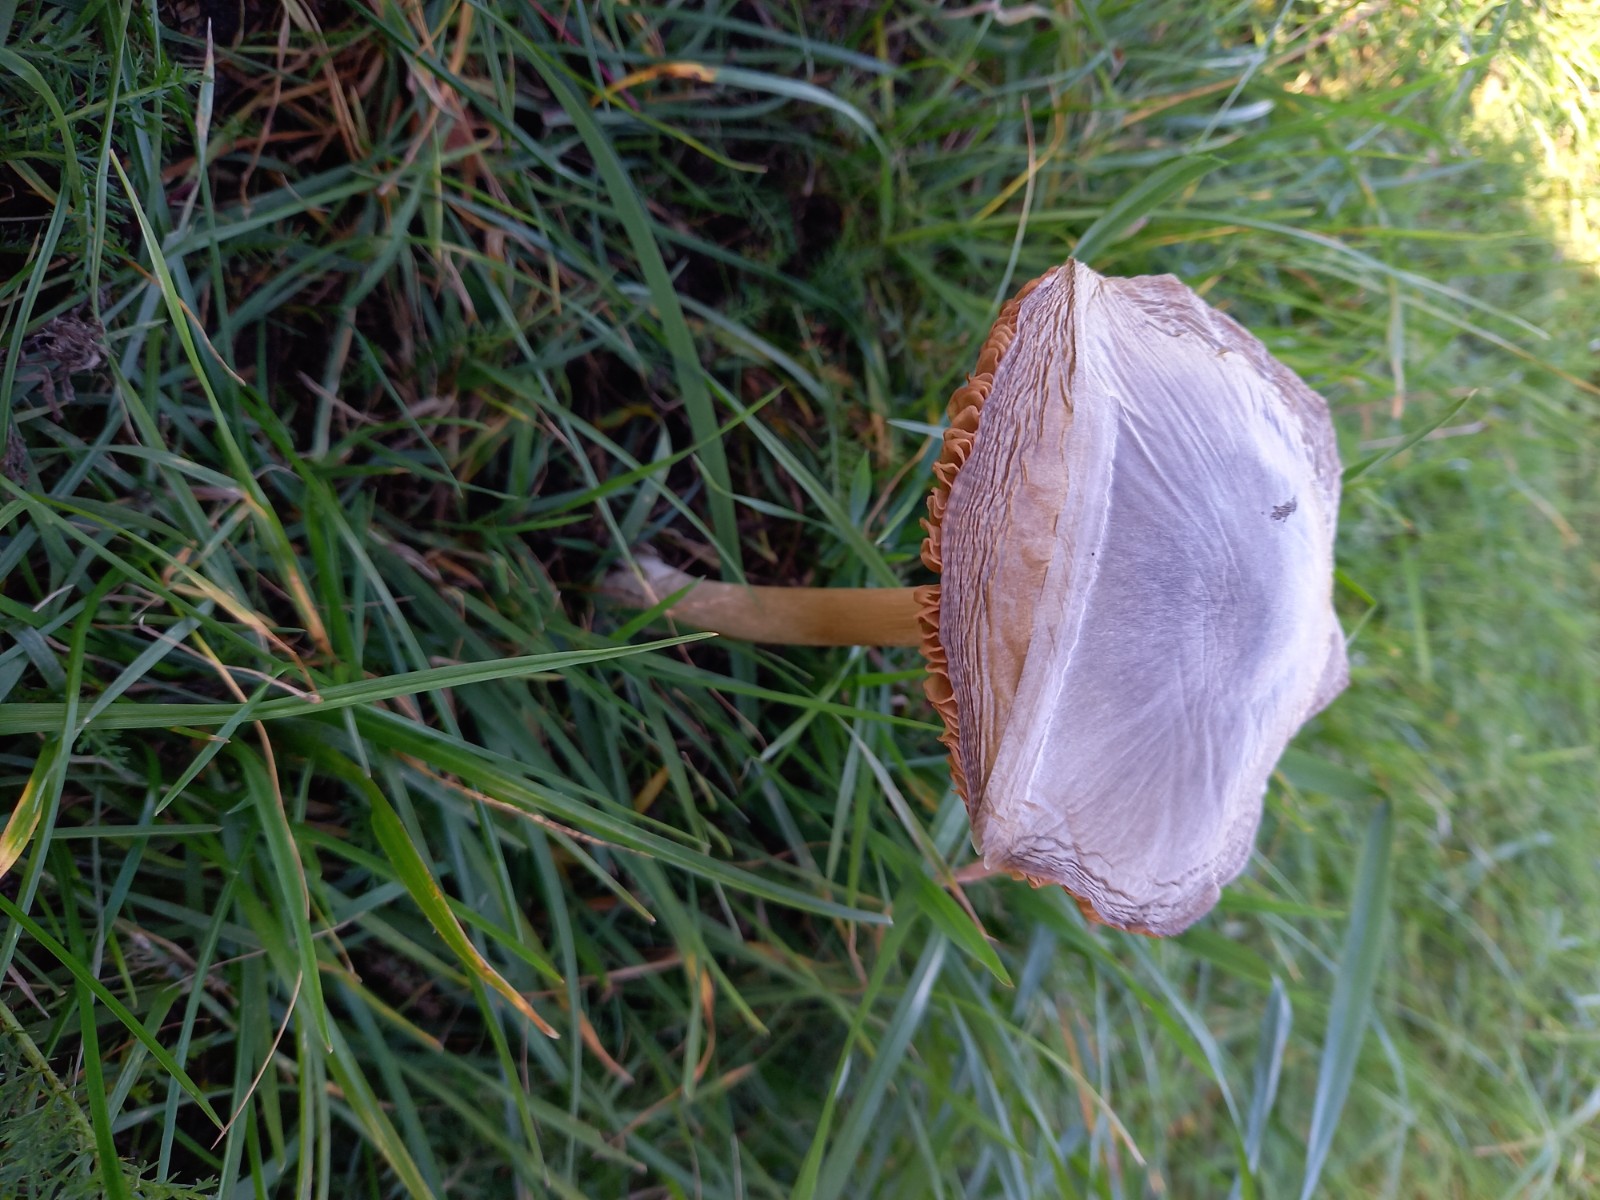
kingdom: Fungi
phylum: Basidiomycota
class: Agaricomycetes
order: Agaricales
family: Pluteaceae
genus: Volvopluteus
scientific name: Volvopluteus gloiocephalus
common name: høj posesvamp
